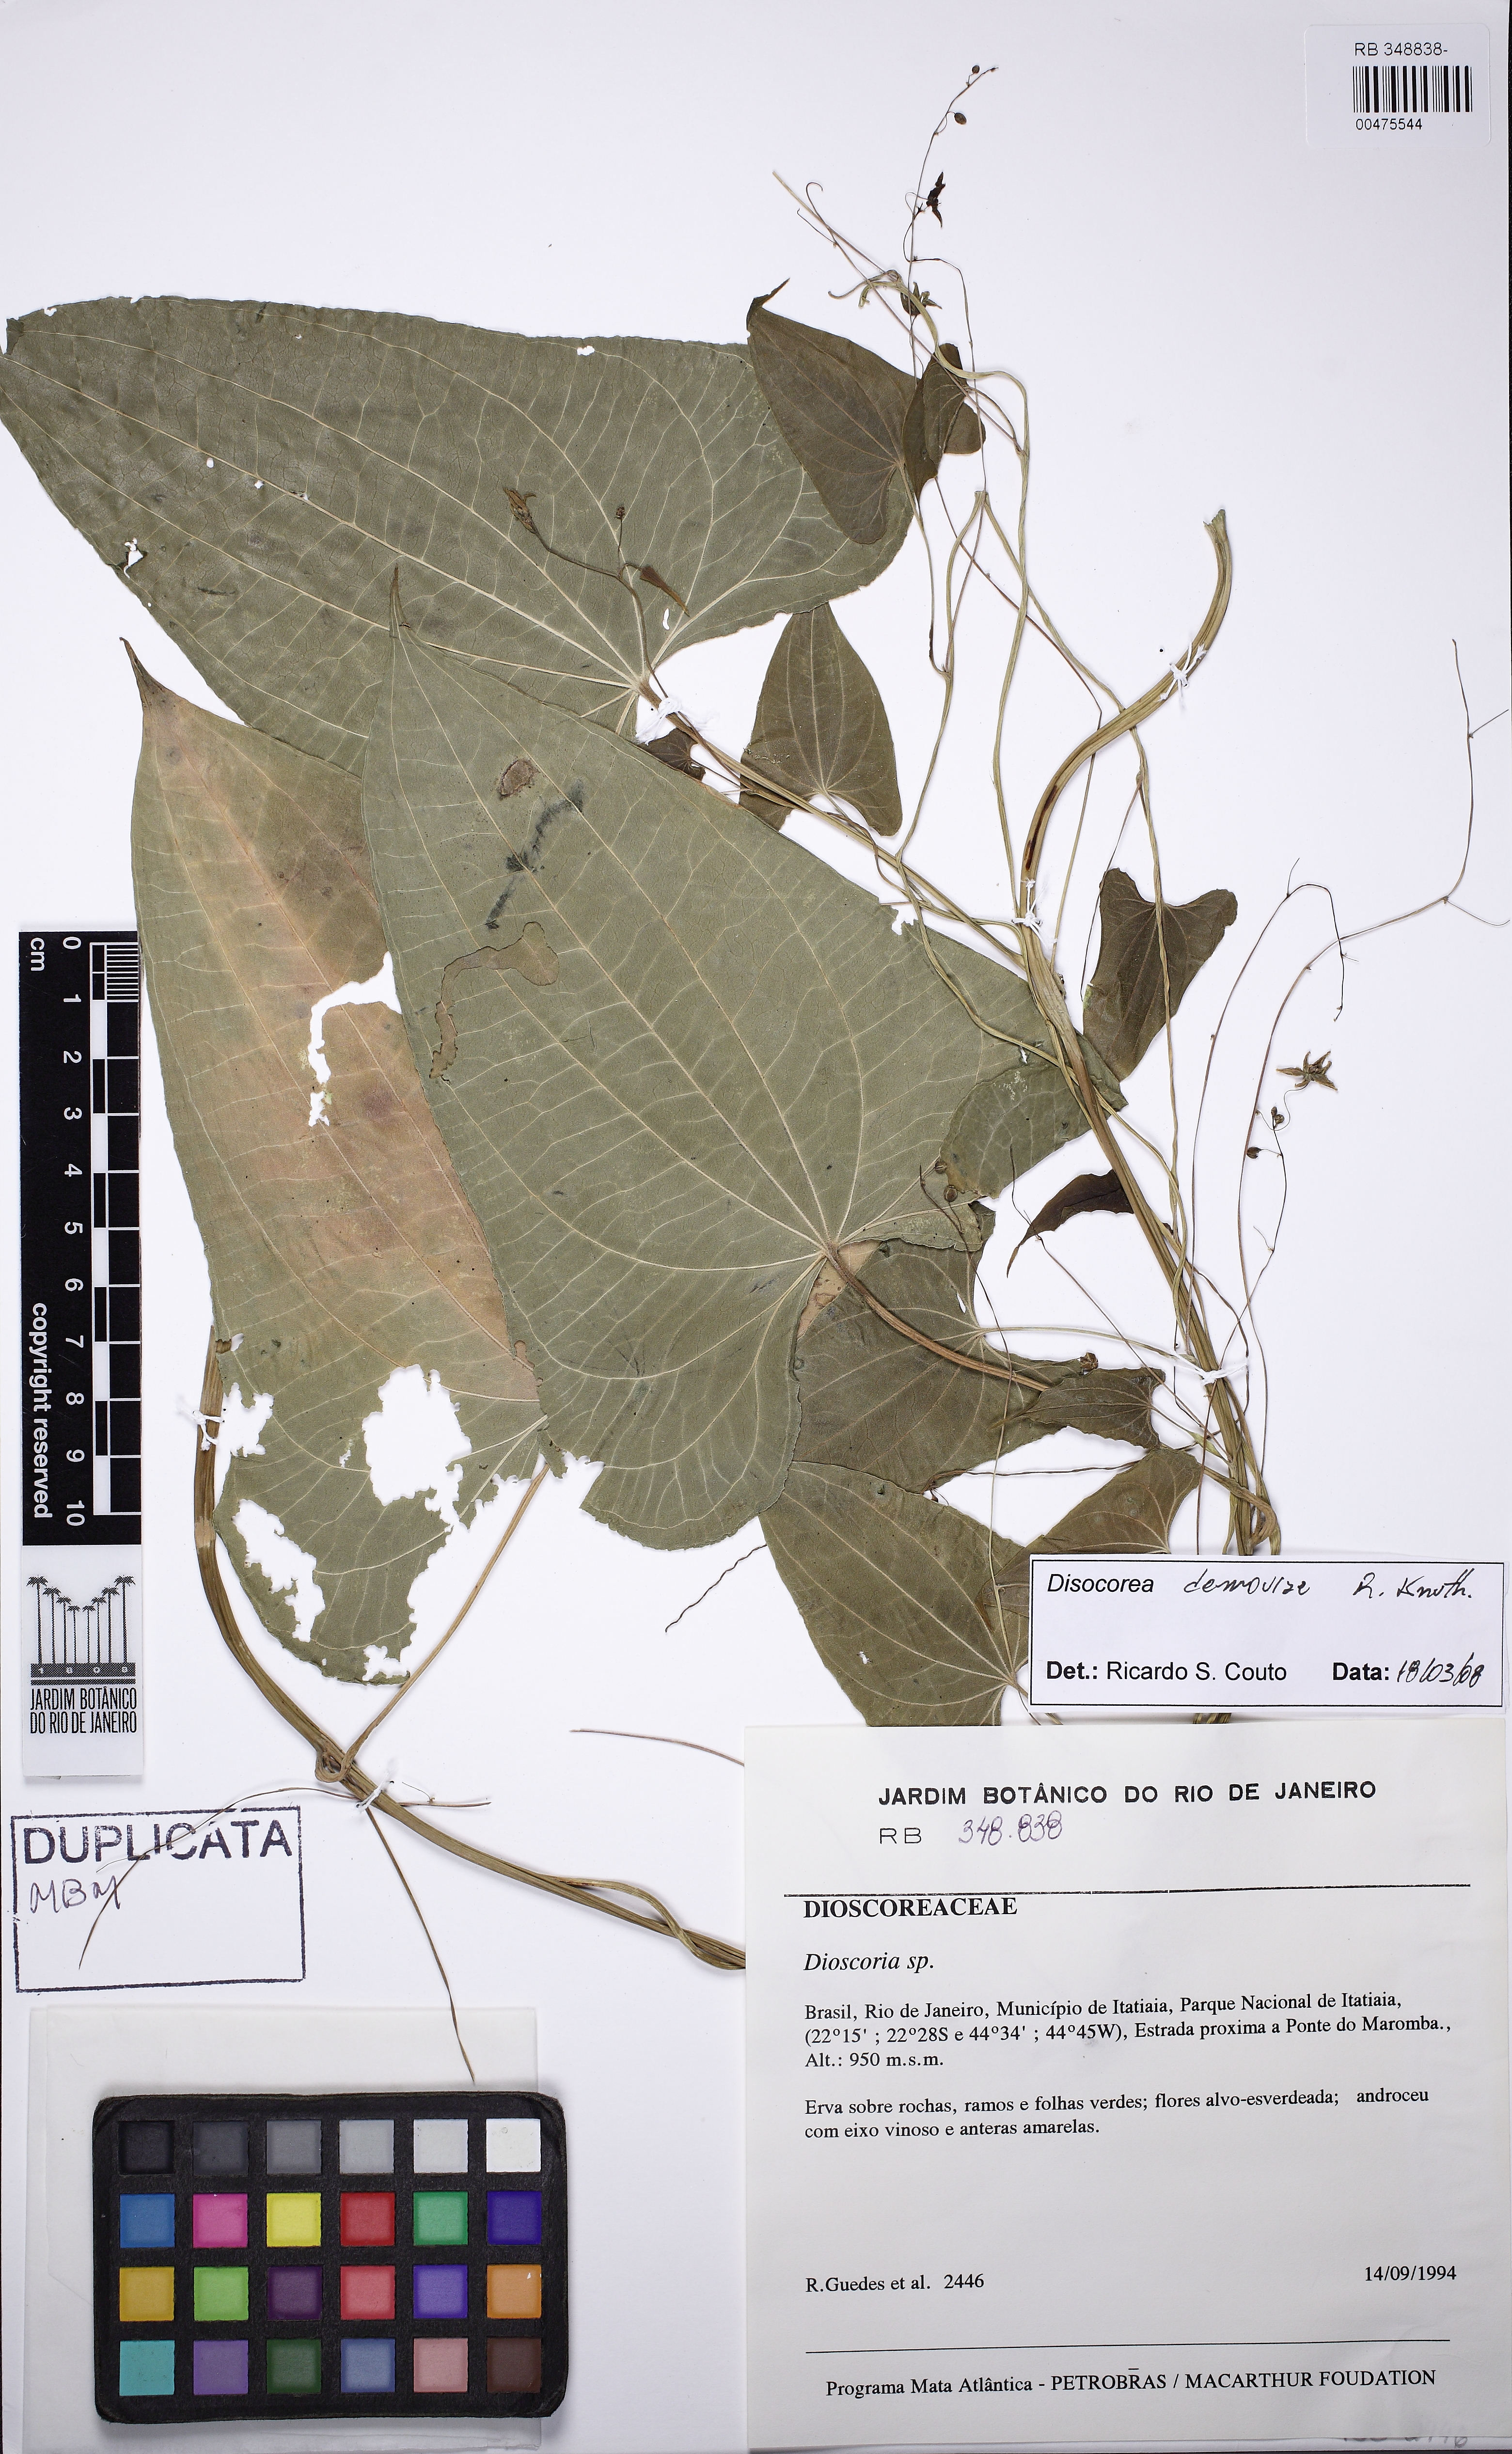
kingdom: Plantae
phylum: Tracheophyta
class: Liliopsida
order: Dioscoreales
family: Dioscoreaceae
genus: Dioscorea
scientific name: Dioscorea demourae
